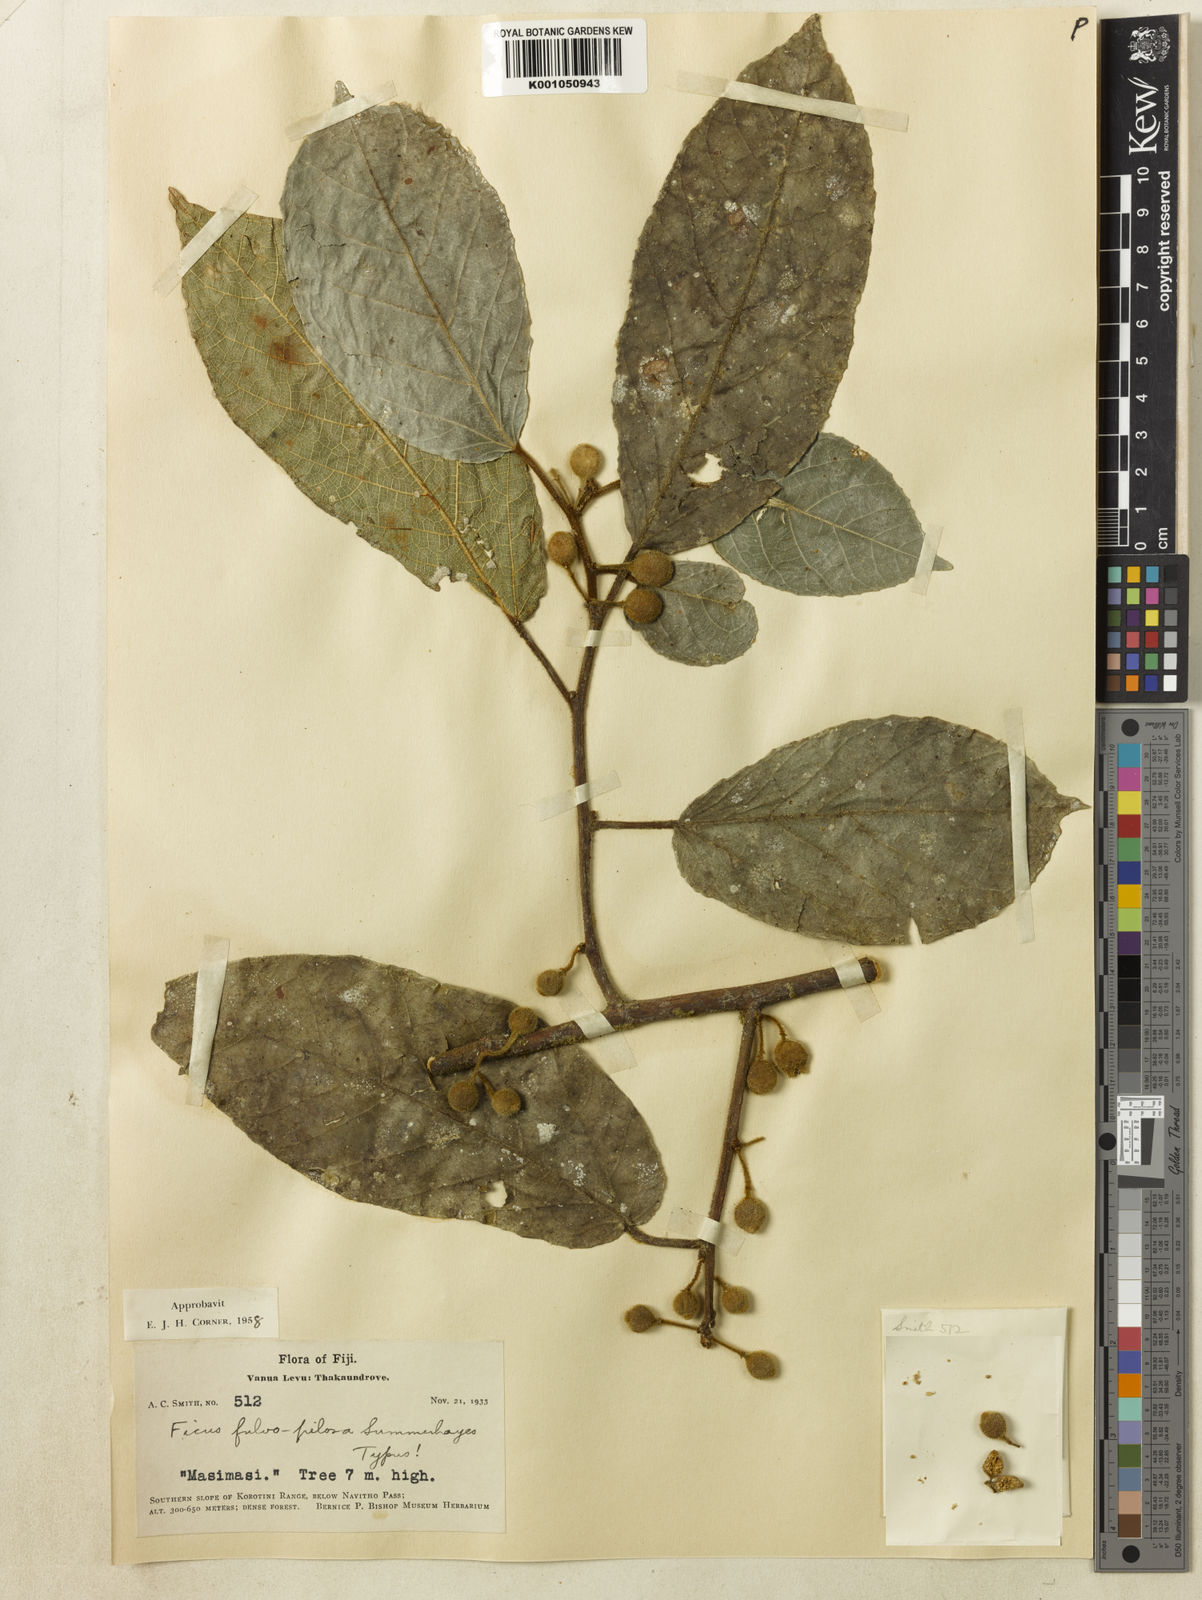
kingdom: Plantae
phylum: Tracheophyta
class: Magnoliopsida
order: Rosales
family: Moraceae
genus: Ficus
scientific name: Ficus fulvopilosa
